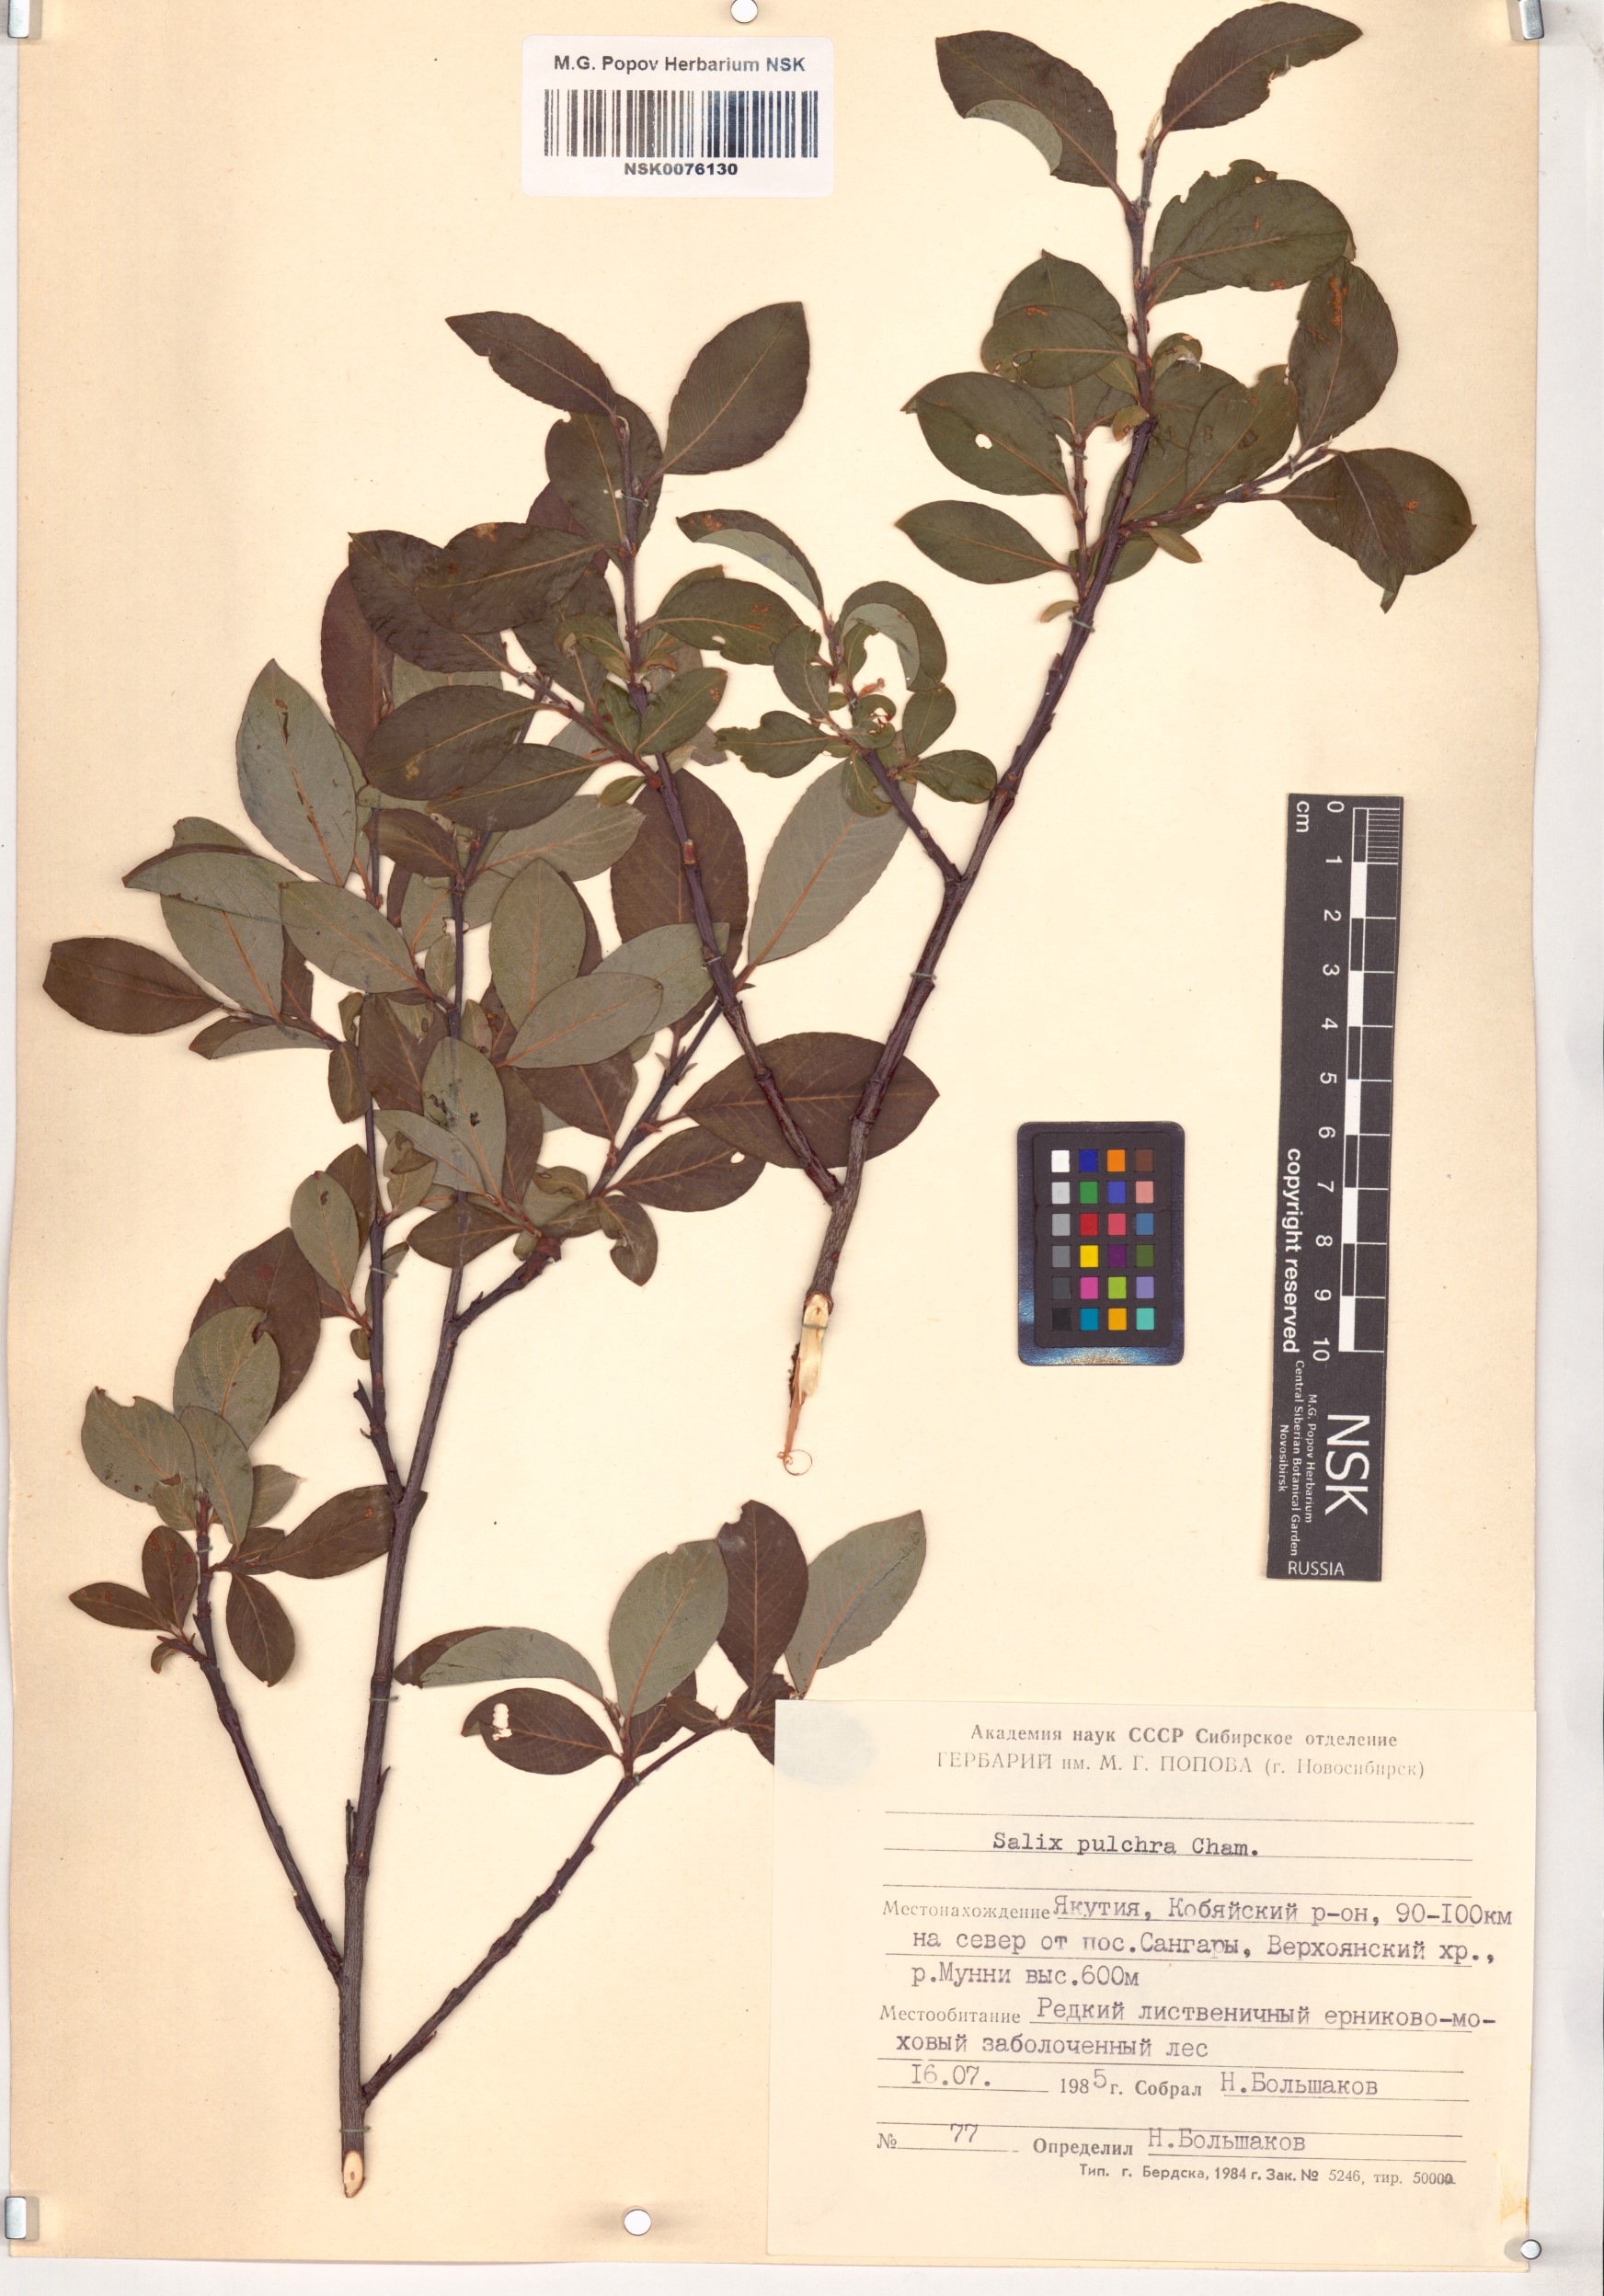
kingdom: Plantae
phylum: Tracheophyta
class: Magnoliopsida
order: Malpighiales
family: Salicaceae
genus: Salix
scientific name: Salix pulchra
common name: Diamond-leaved willow
